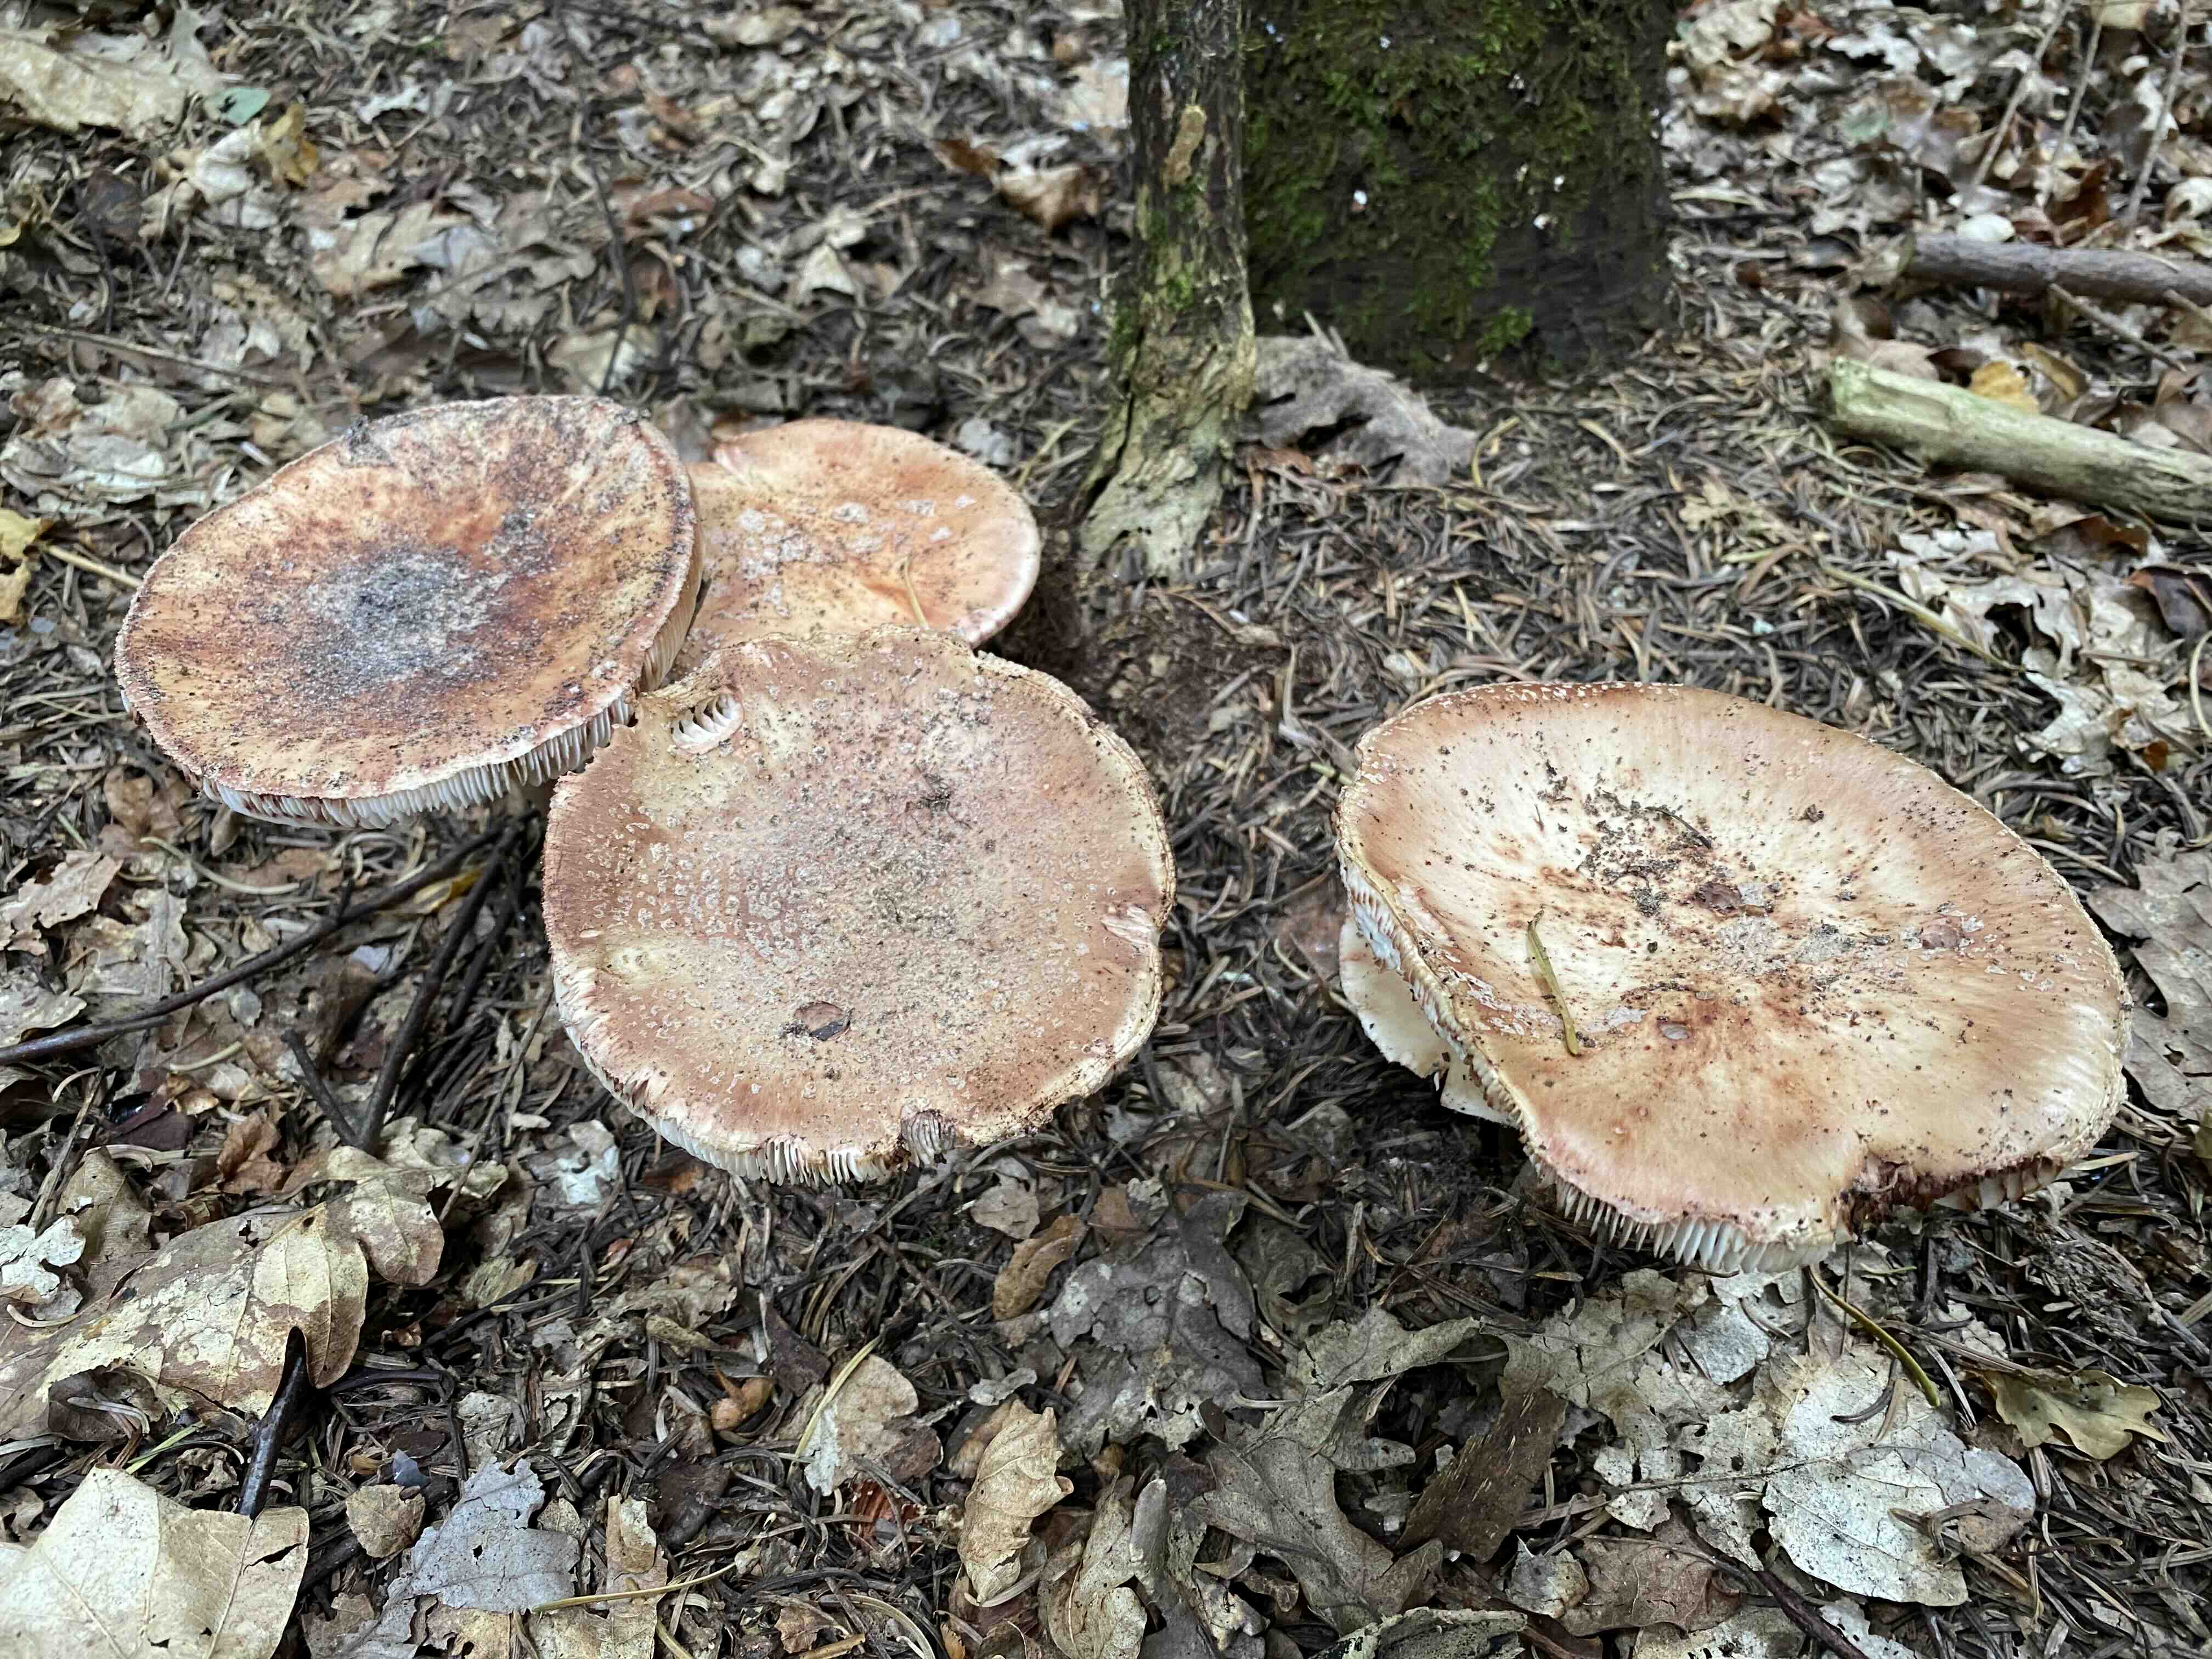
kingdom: Fungi
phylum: Basidiomycota
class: Agaricomycetes
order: Agaricales
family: Amanitaceae
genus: Amanita
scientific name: Amanita rubescens
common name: rødmende fluesvamp
